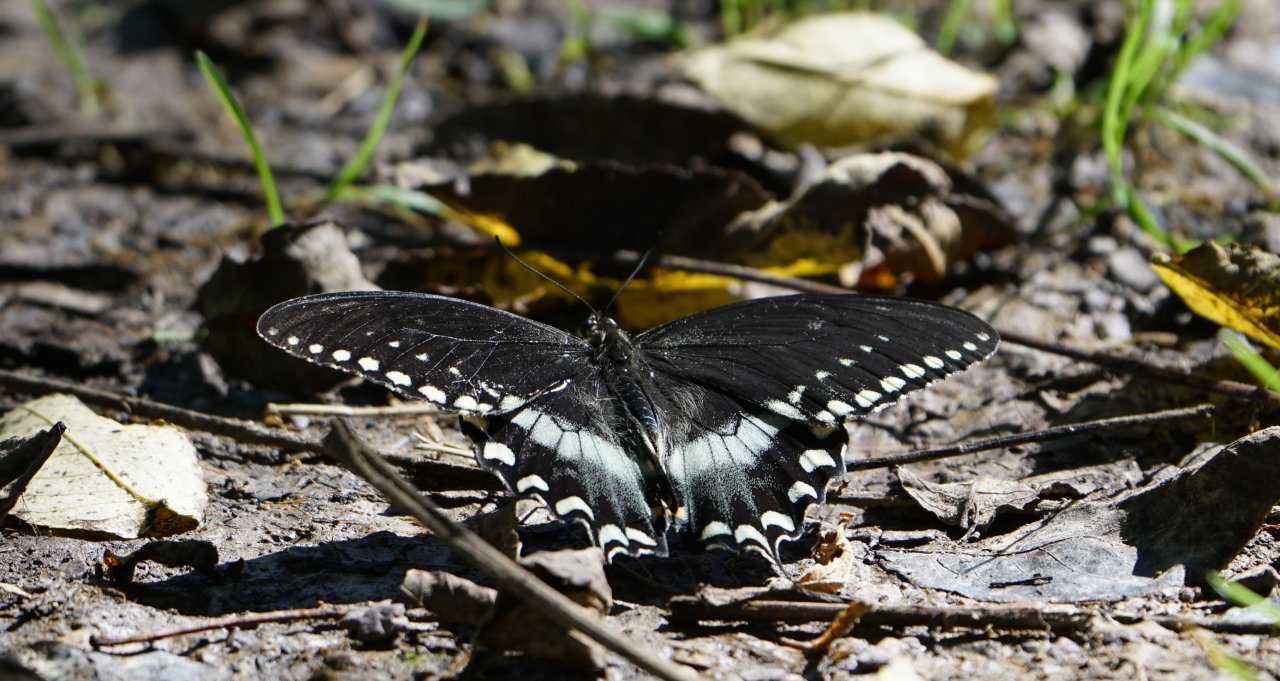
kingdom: Animalia
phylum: Arthropoda
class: Insecta
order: Lepidoptera
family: Papilionidae
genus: Pterourus
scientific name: Pterourus troilus
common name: Spicebush Swallowtail
